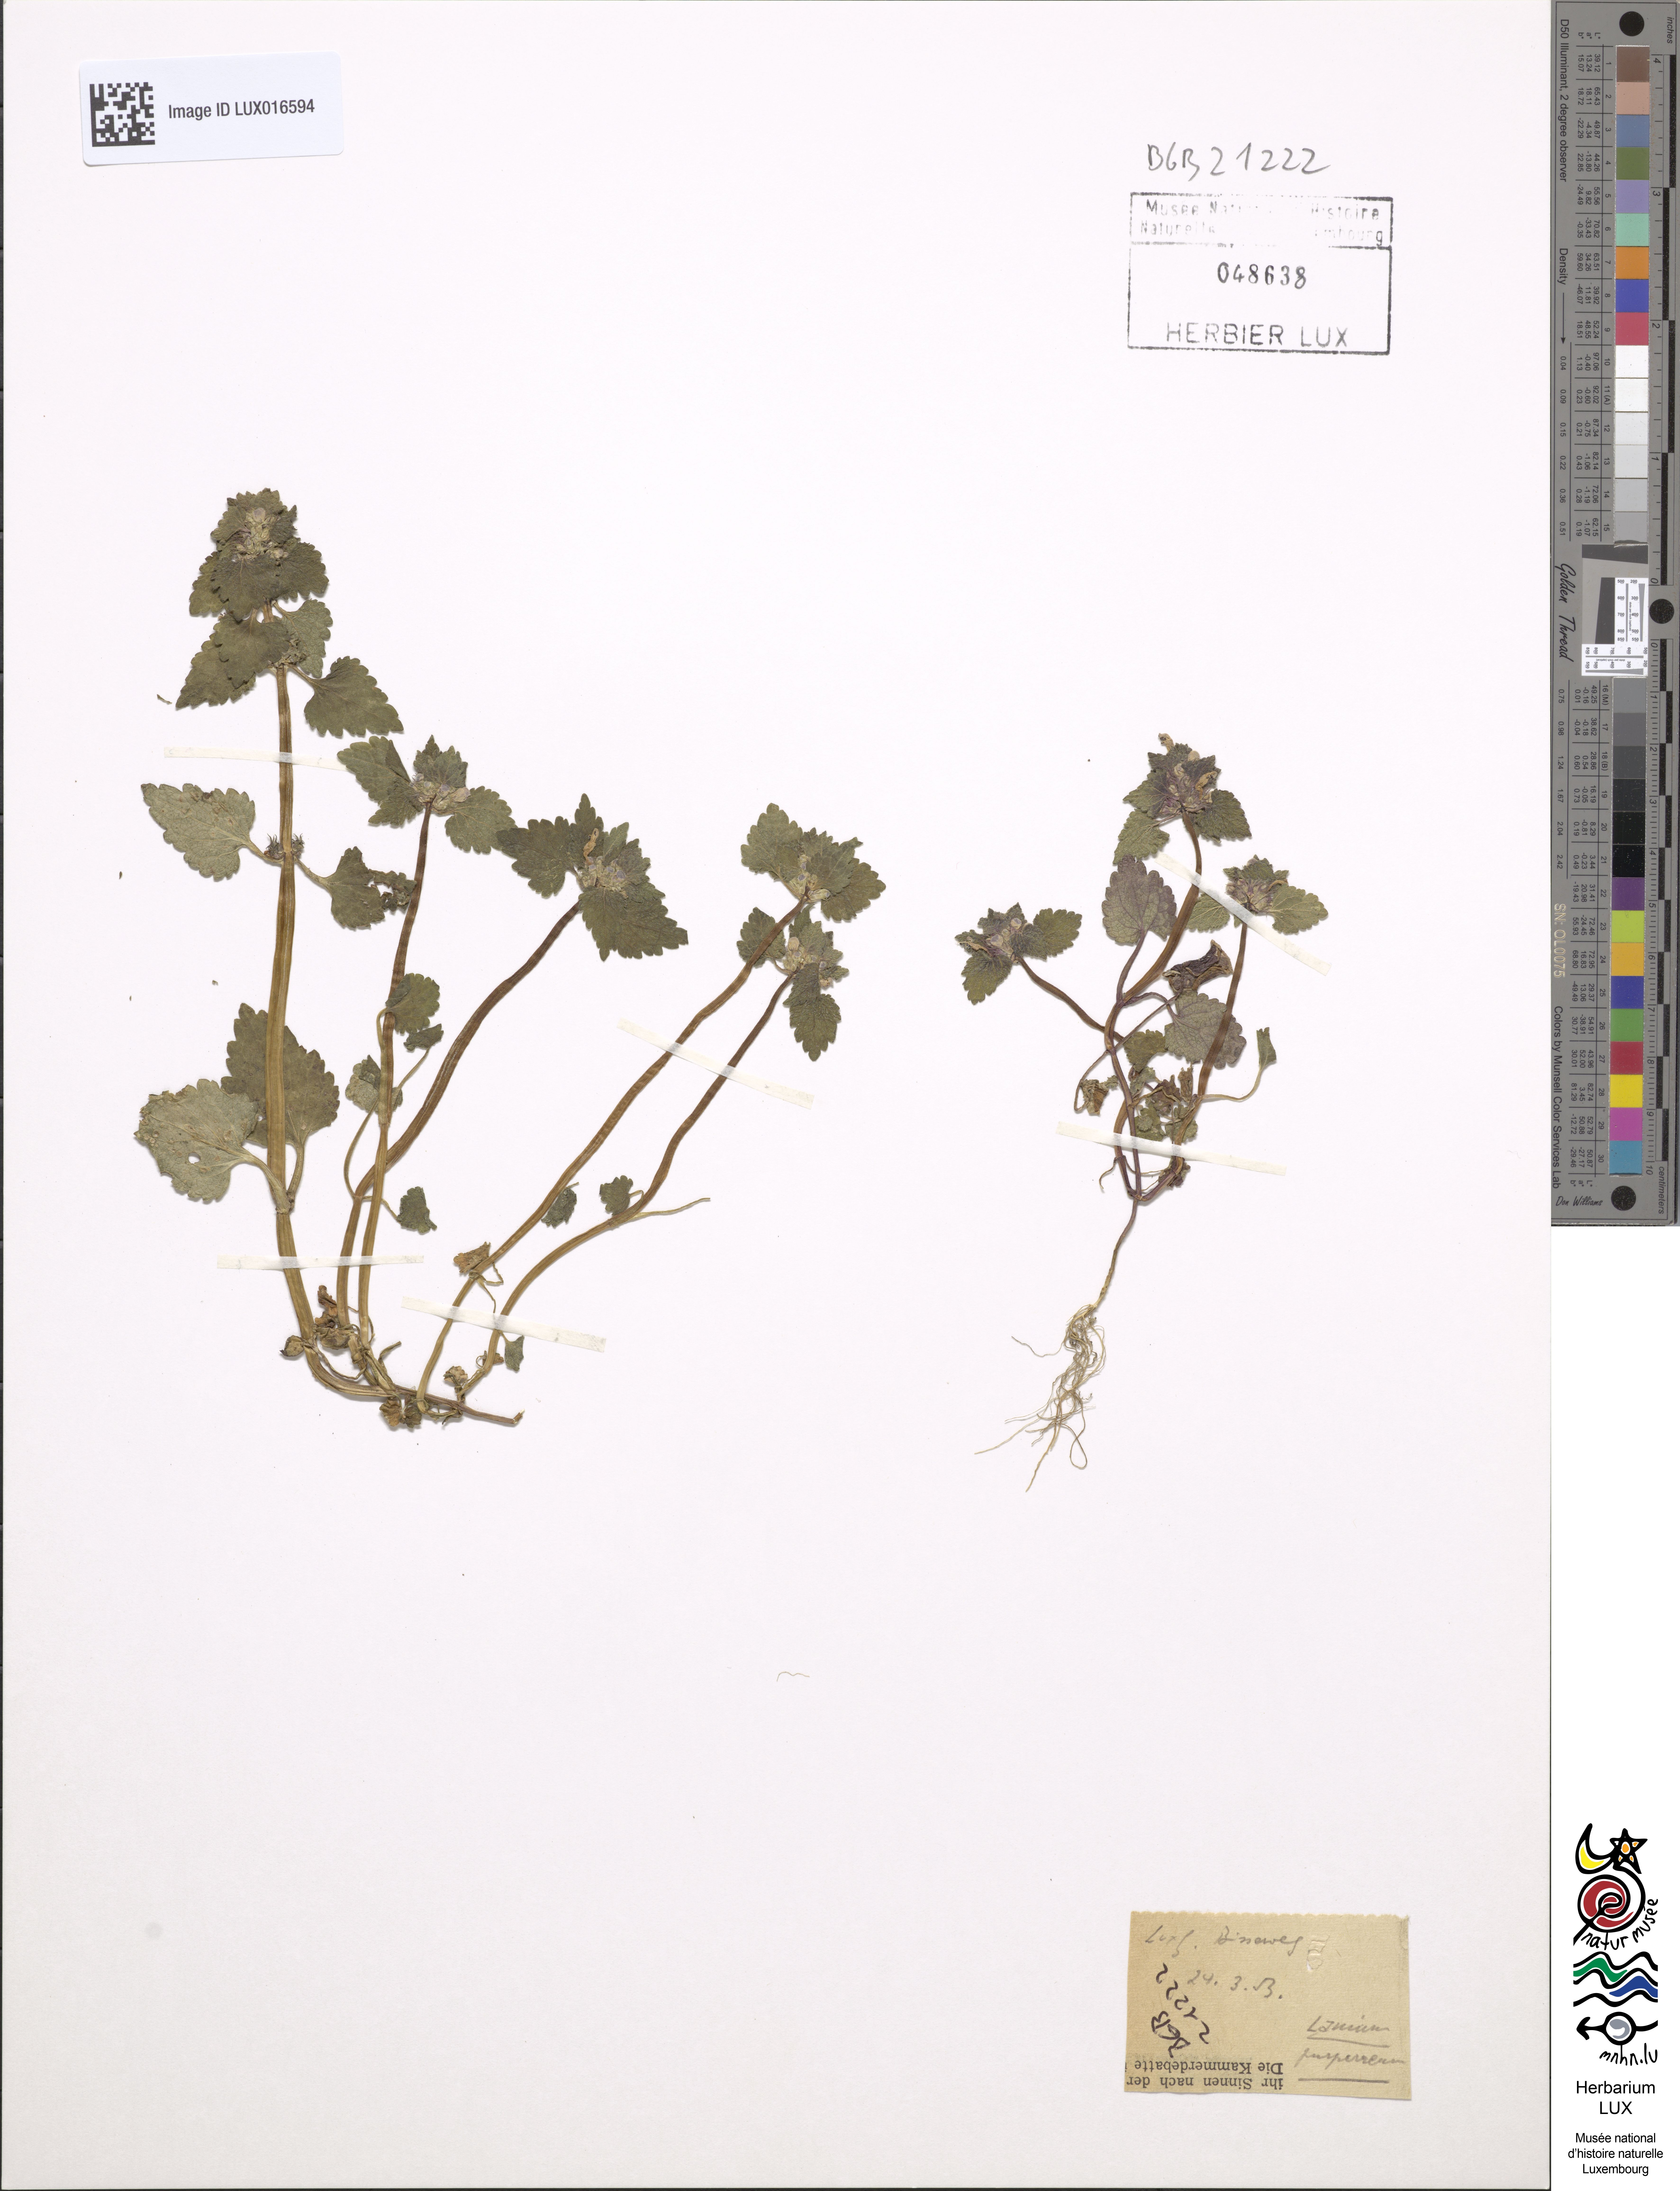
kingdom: Plantae
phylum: Tracheophyta
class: Magnoliopsida
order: Lamiales
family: Lamiaceae
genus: Lamium
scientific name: Lamium purpureum
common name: Red dead-nettle
